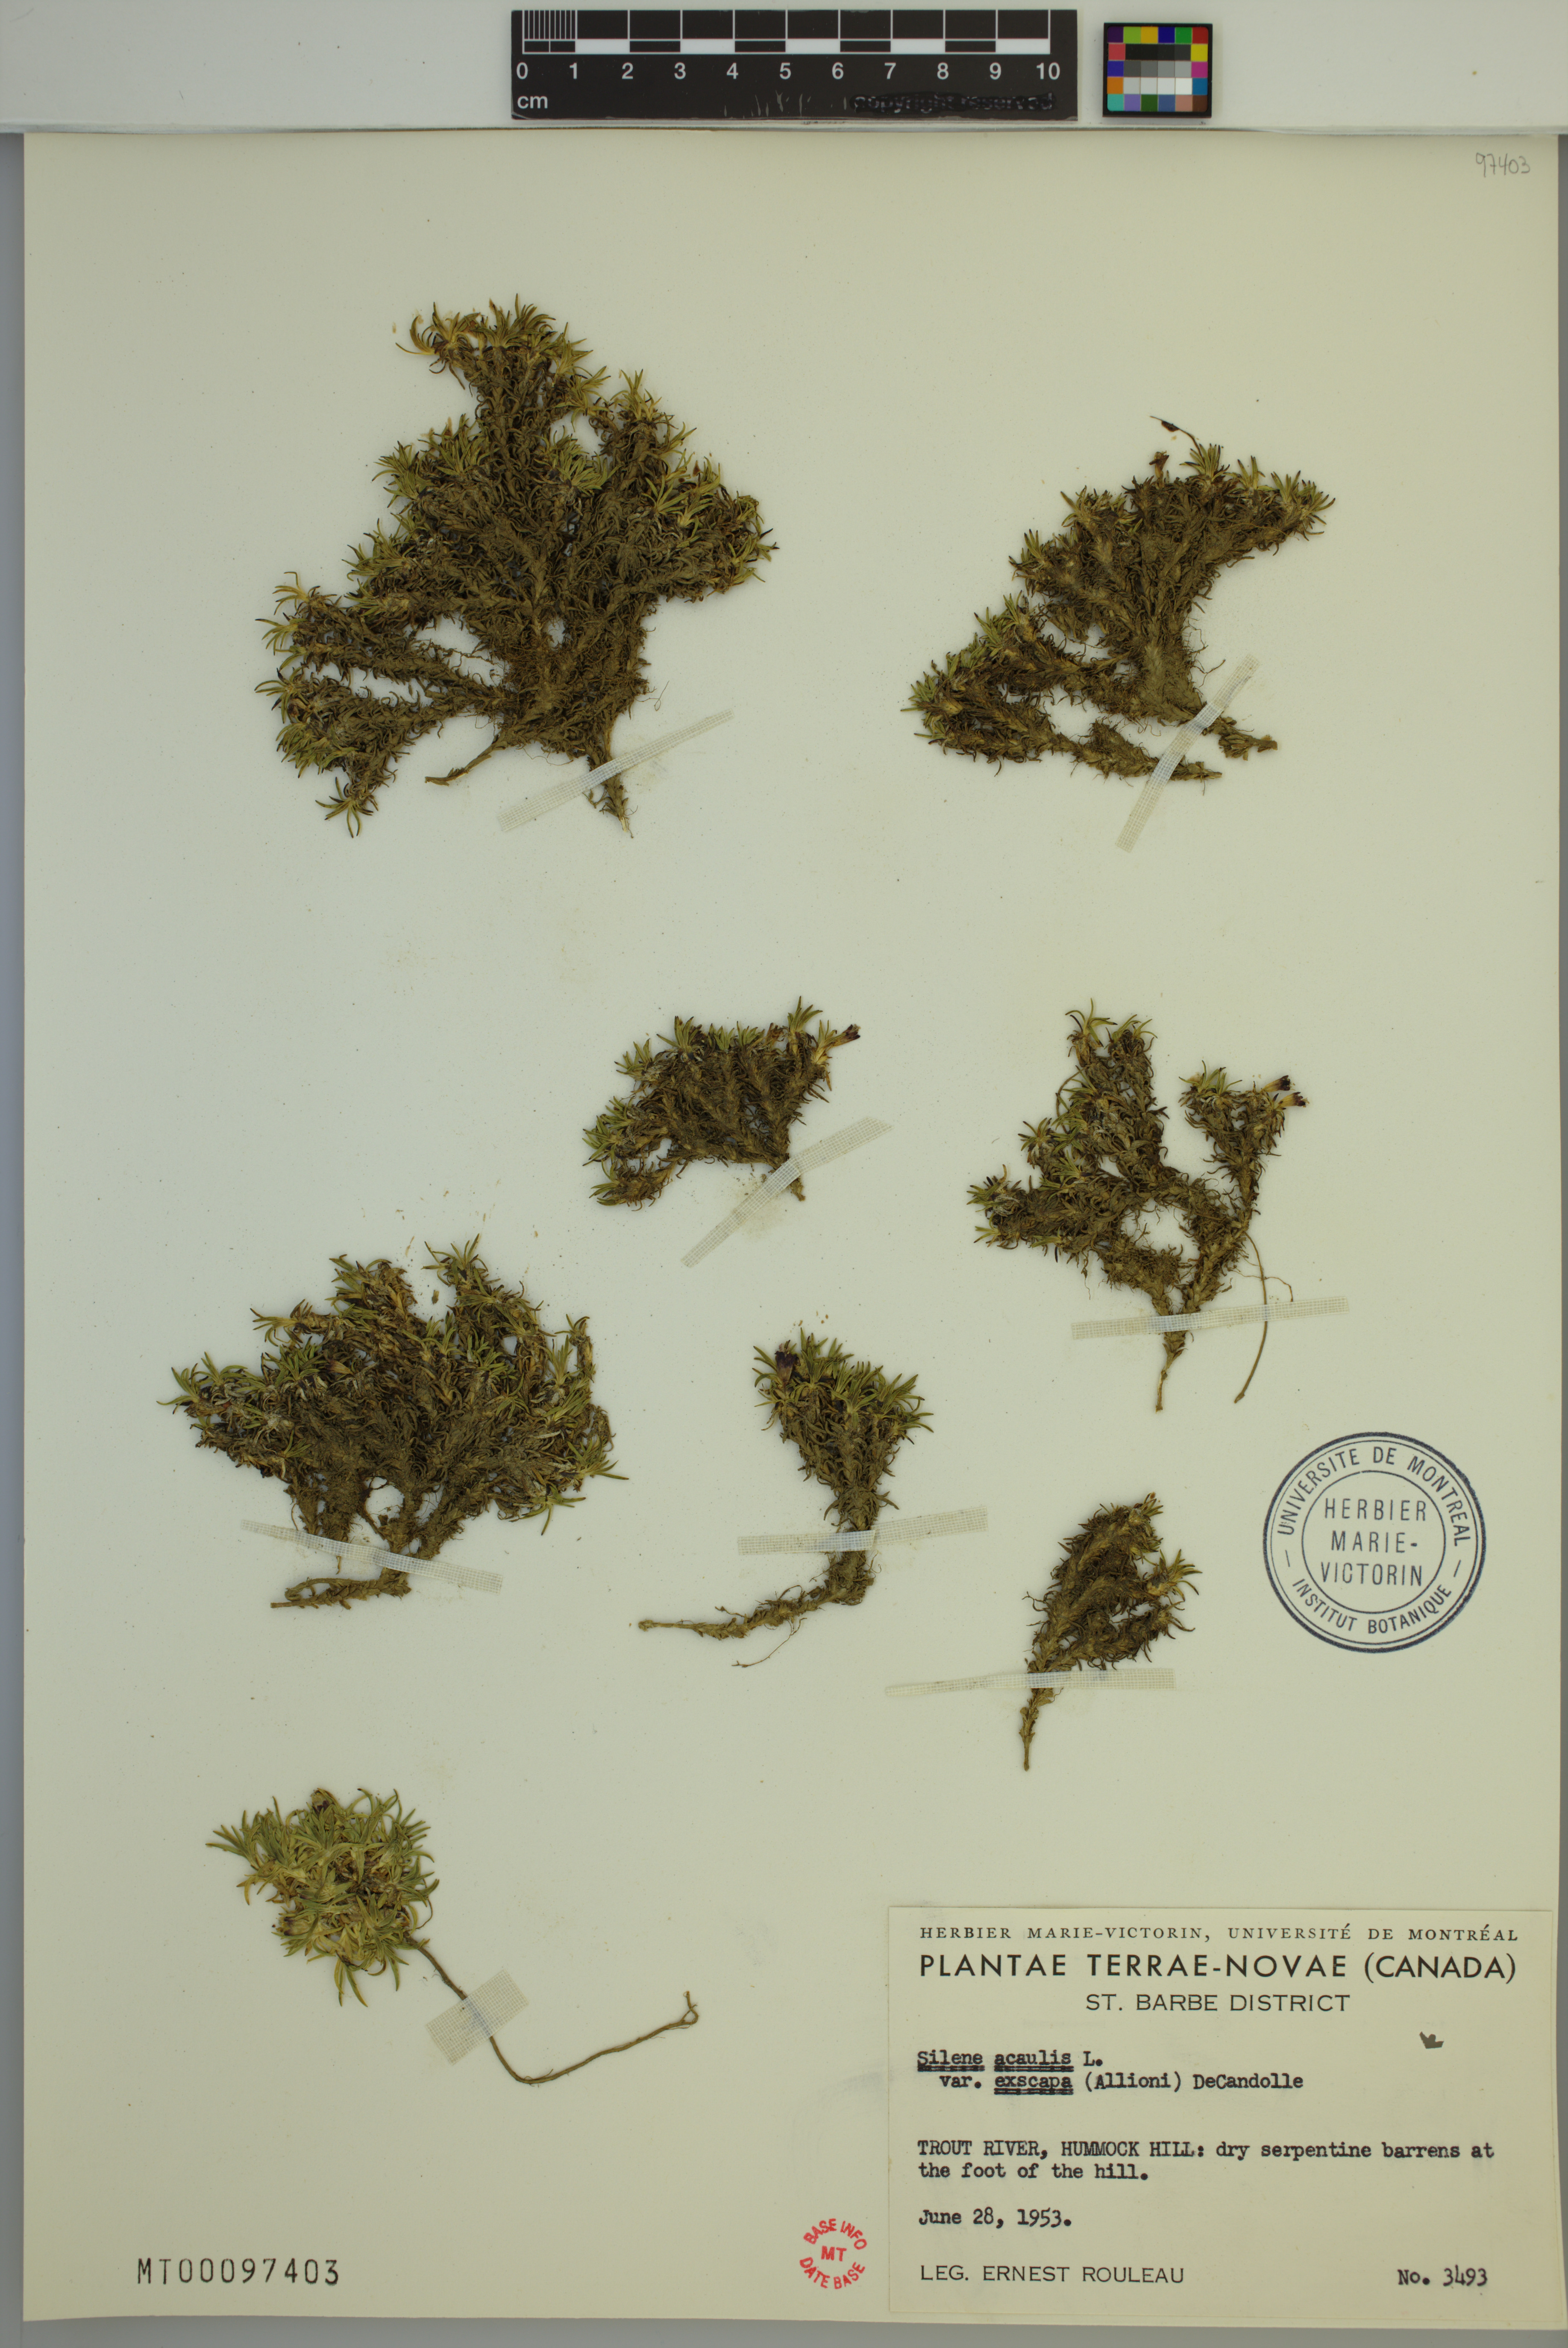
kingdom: Plantae
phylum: Tracheophyta
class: Magnoliopsida
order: Caryophyllales
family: Caryophyllaceae
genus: Silene
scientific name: Silene acaulis
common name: Moss campion
